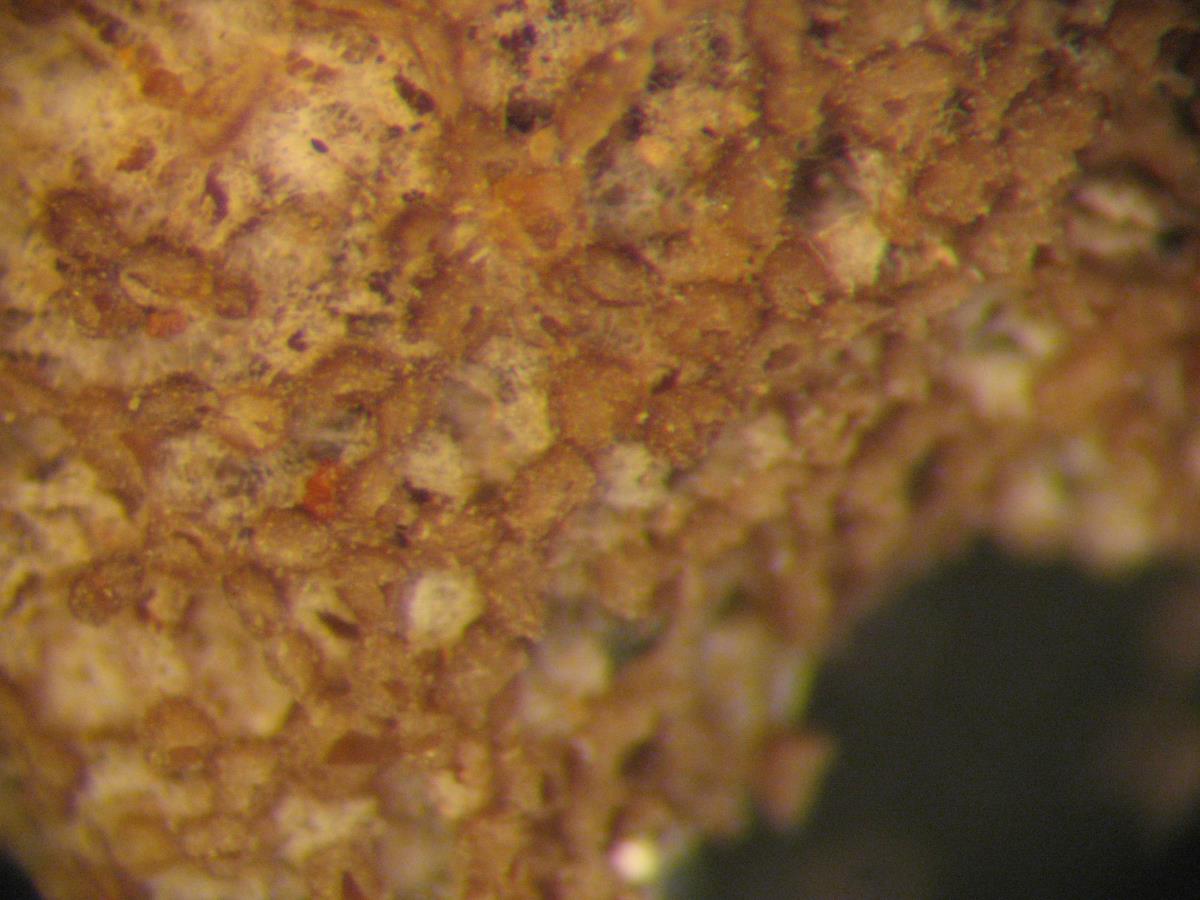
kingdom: Fungi
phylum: Basidiomycota
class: Agaricomycetes
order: Agaricales
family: Pleurotaceae
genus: Stigmatolemma
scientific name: Stigmatolemma
